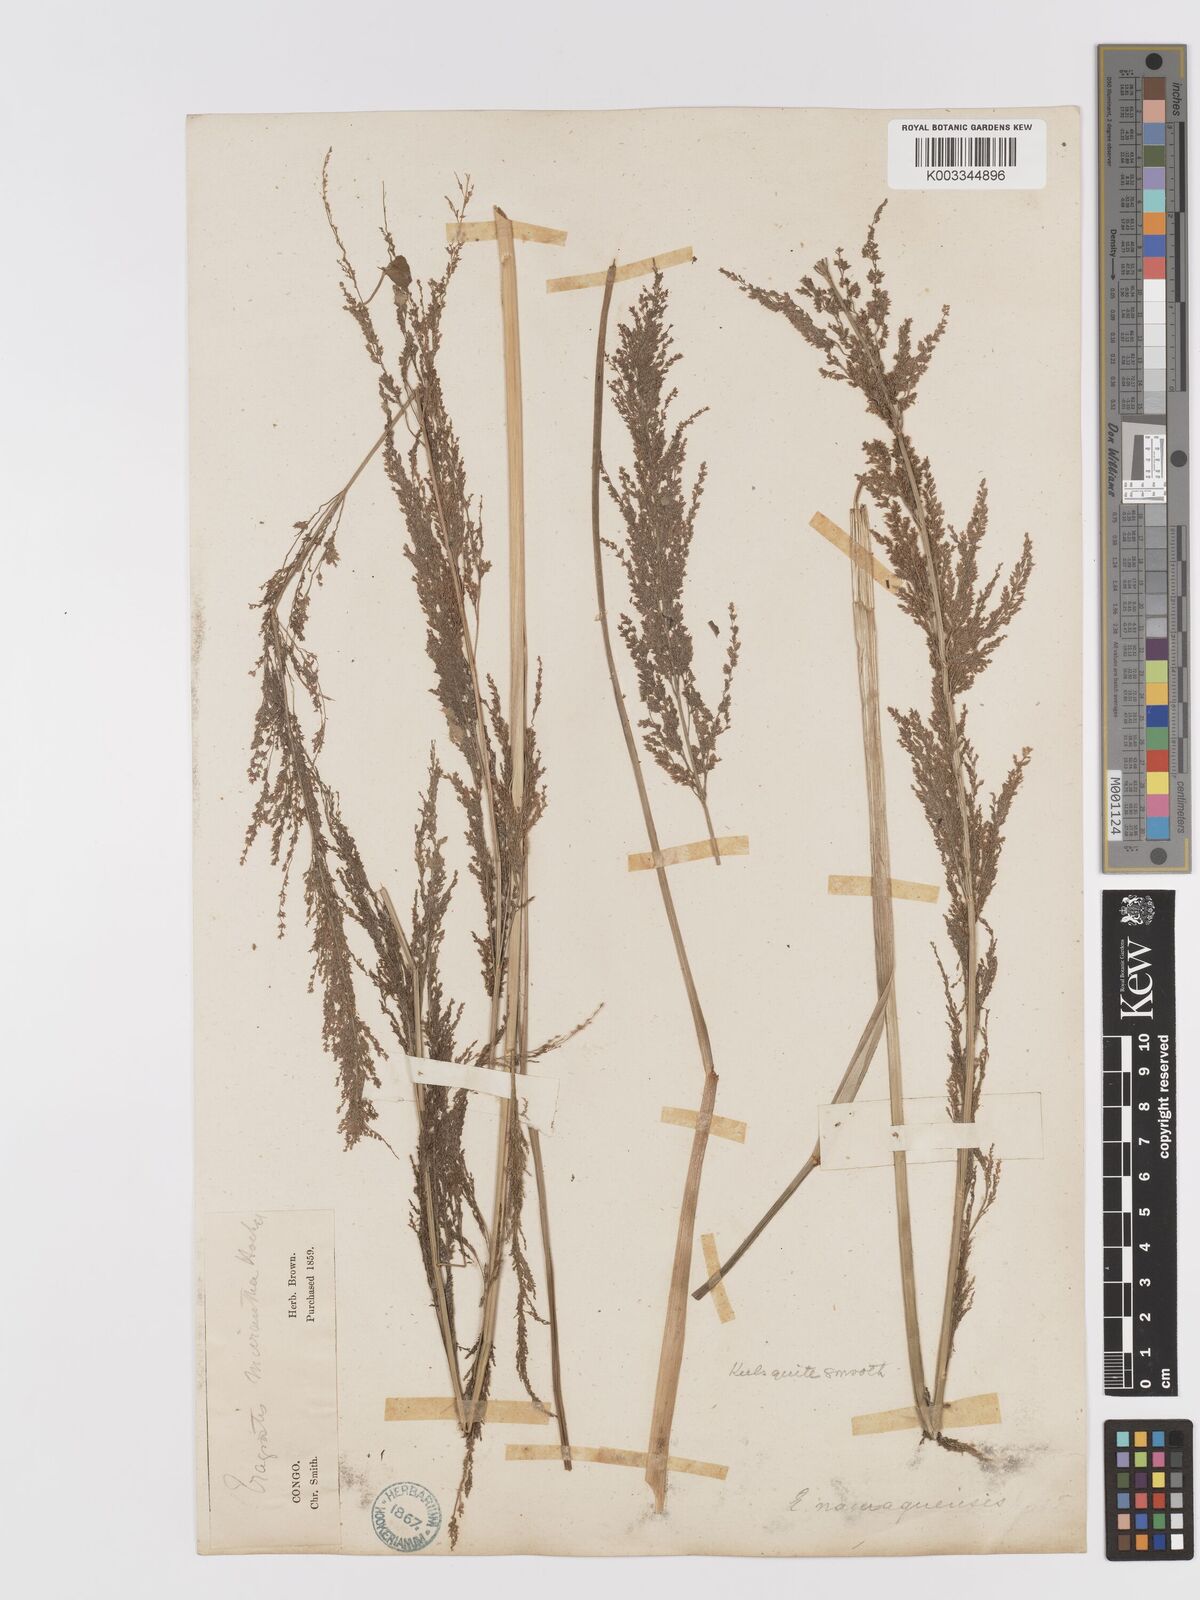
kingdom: Plantae
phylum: Tracheophyta
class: Liliopsida
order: Poales
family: Poaceae
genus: Eragrostis
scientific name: Eragrostis japonica
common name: Pond lovegrass
